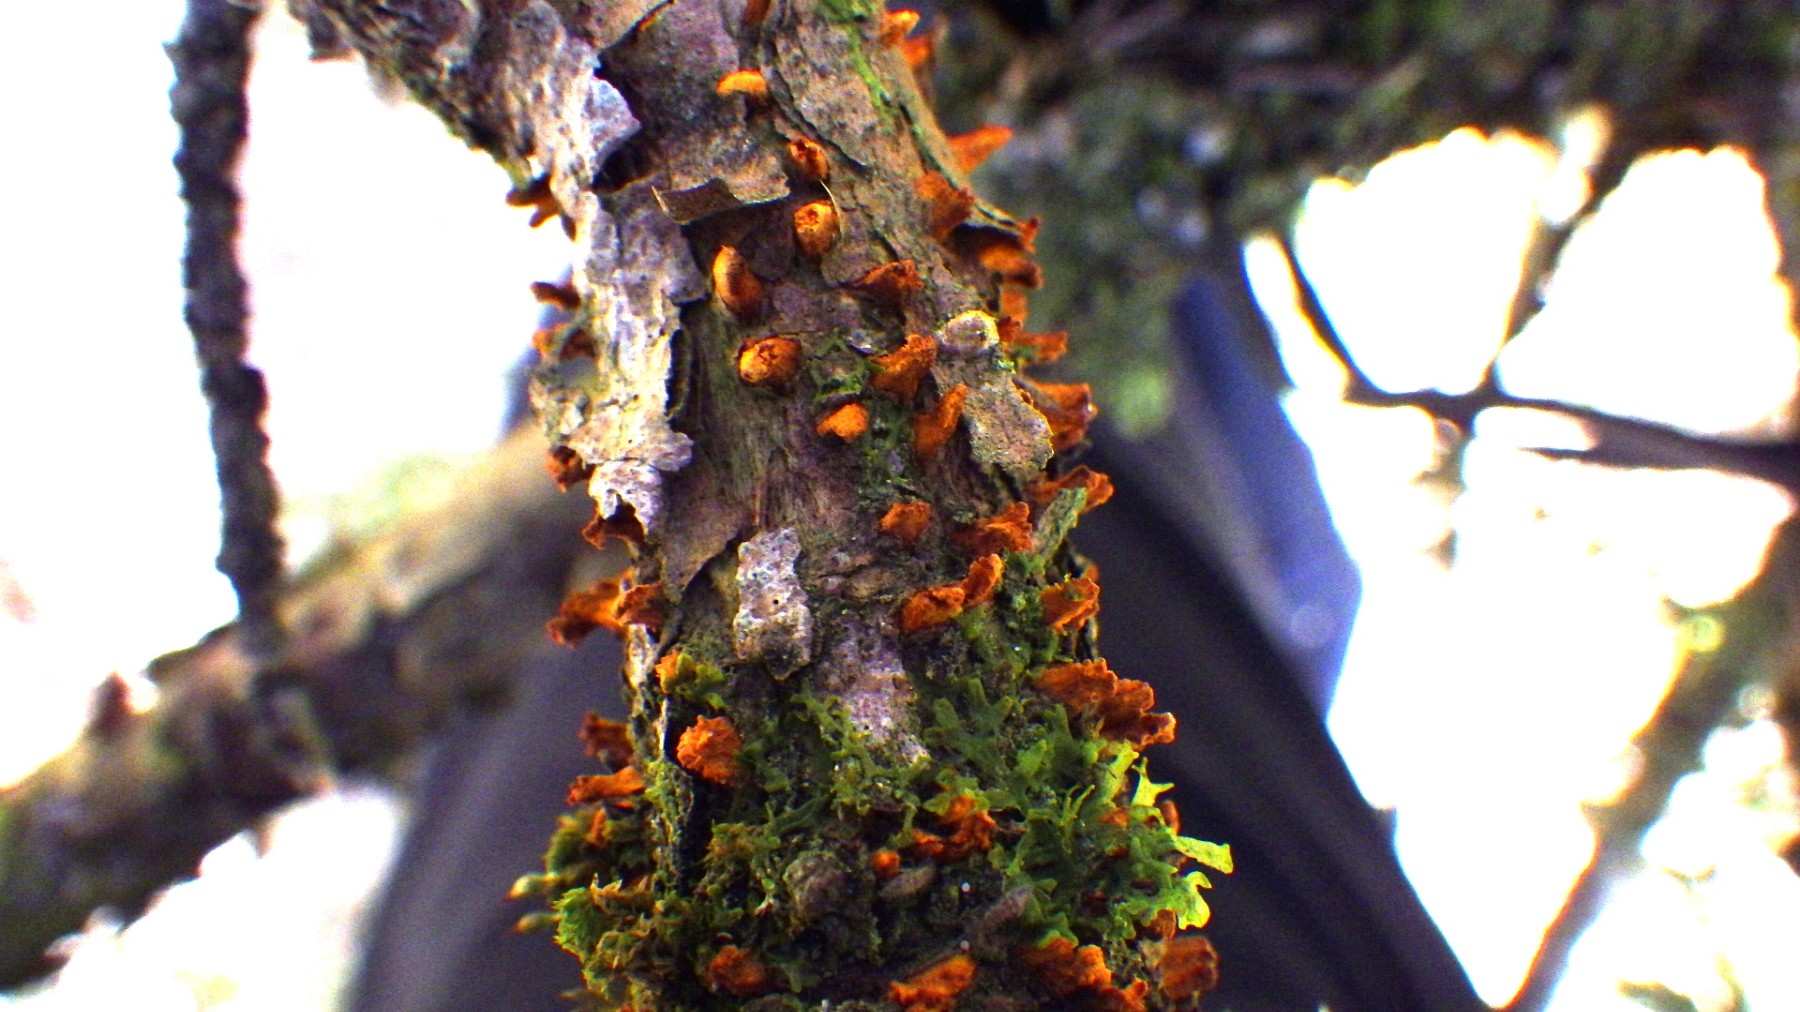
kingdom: Fungi
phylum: Basidiomycota
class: Pucciniomycetes
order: Pucciniales
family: Gymnosporangiaceae
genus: Gymnosporangium
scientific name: Gymnosporangium clavariiforme
